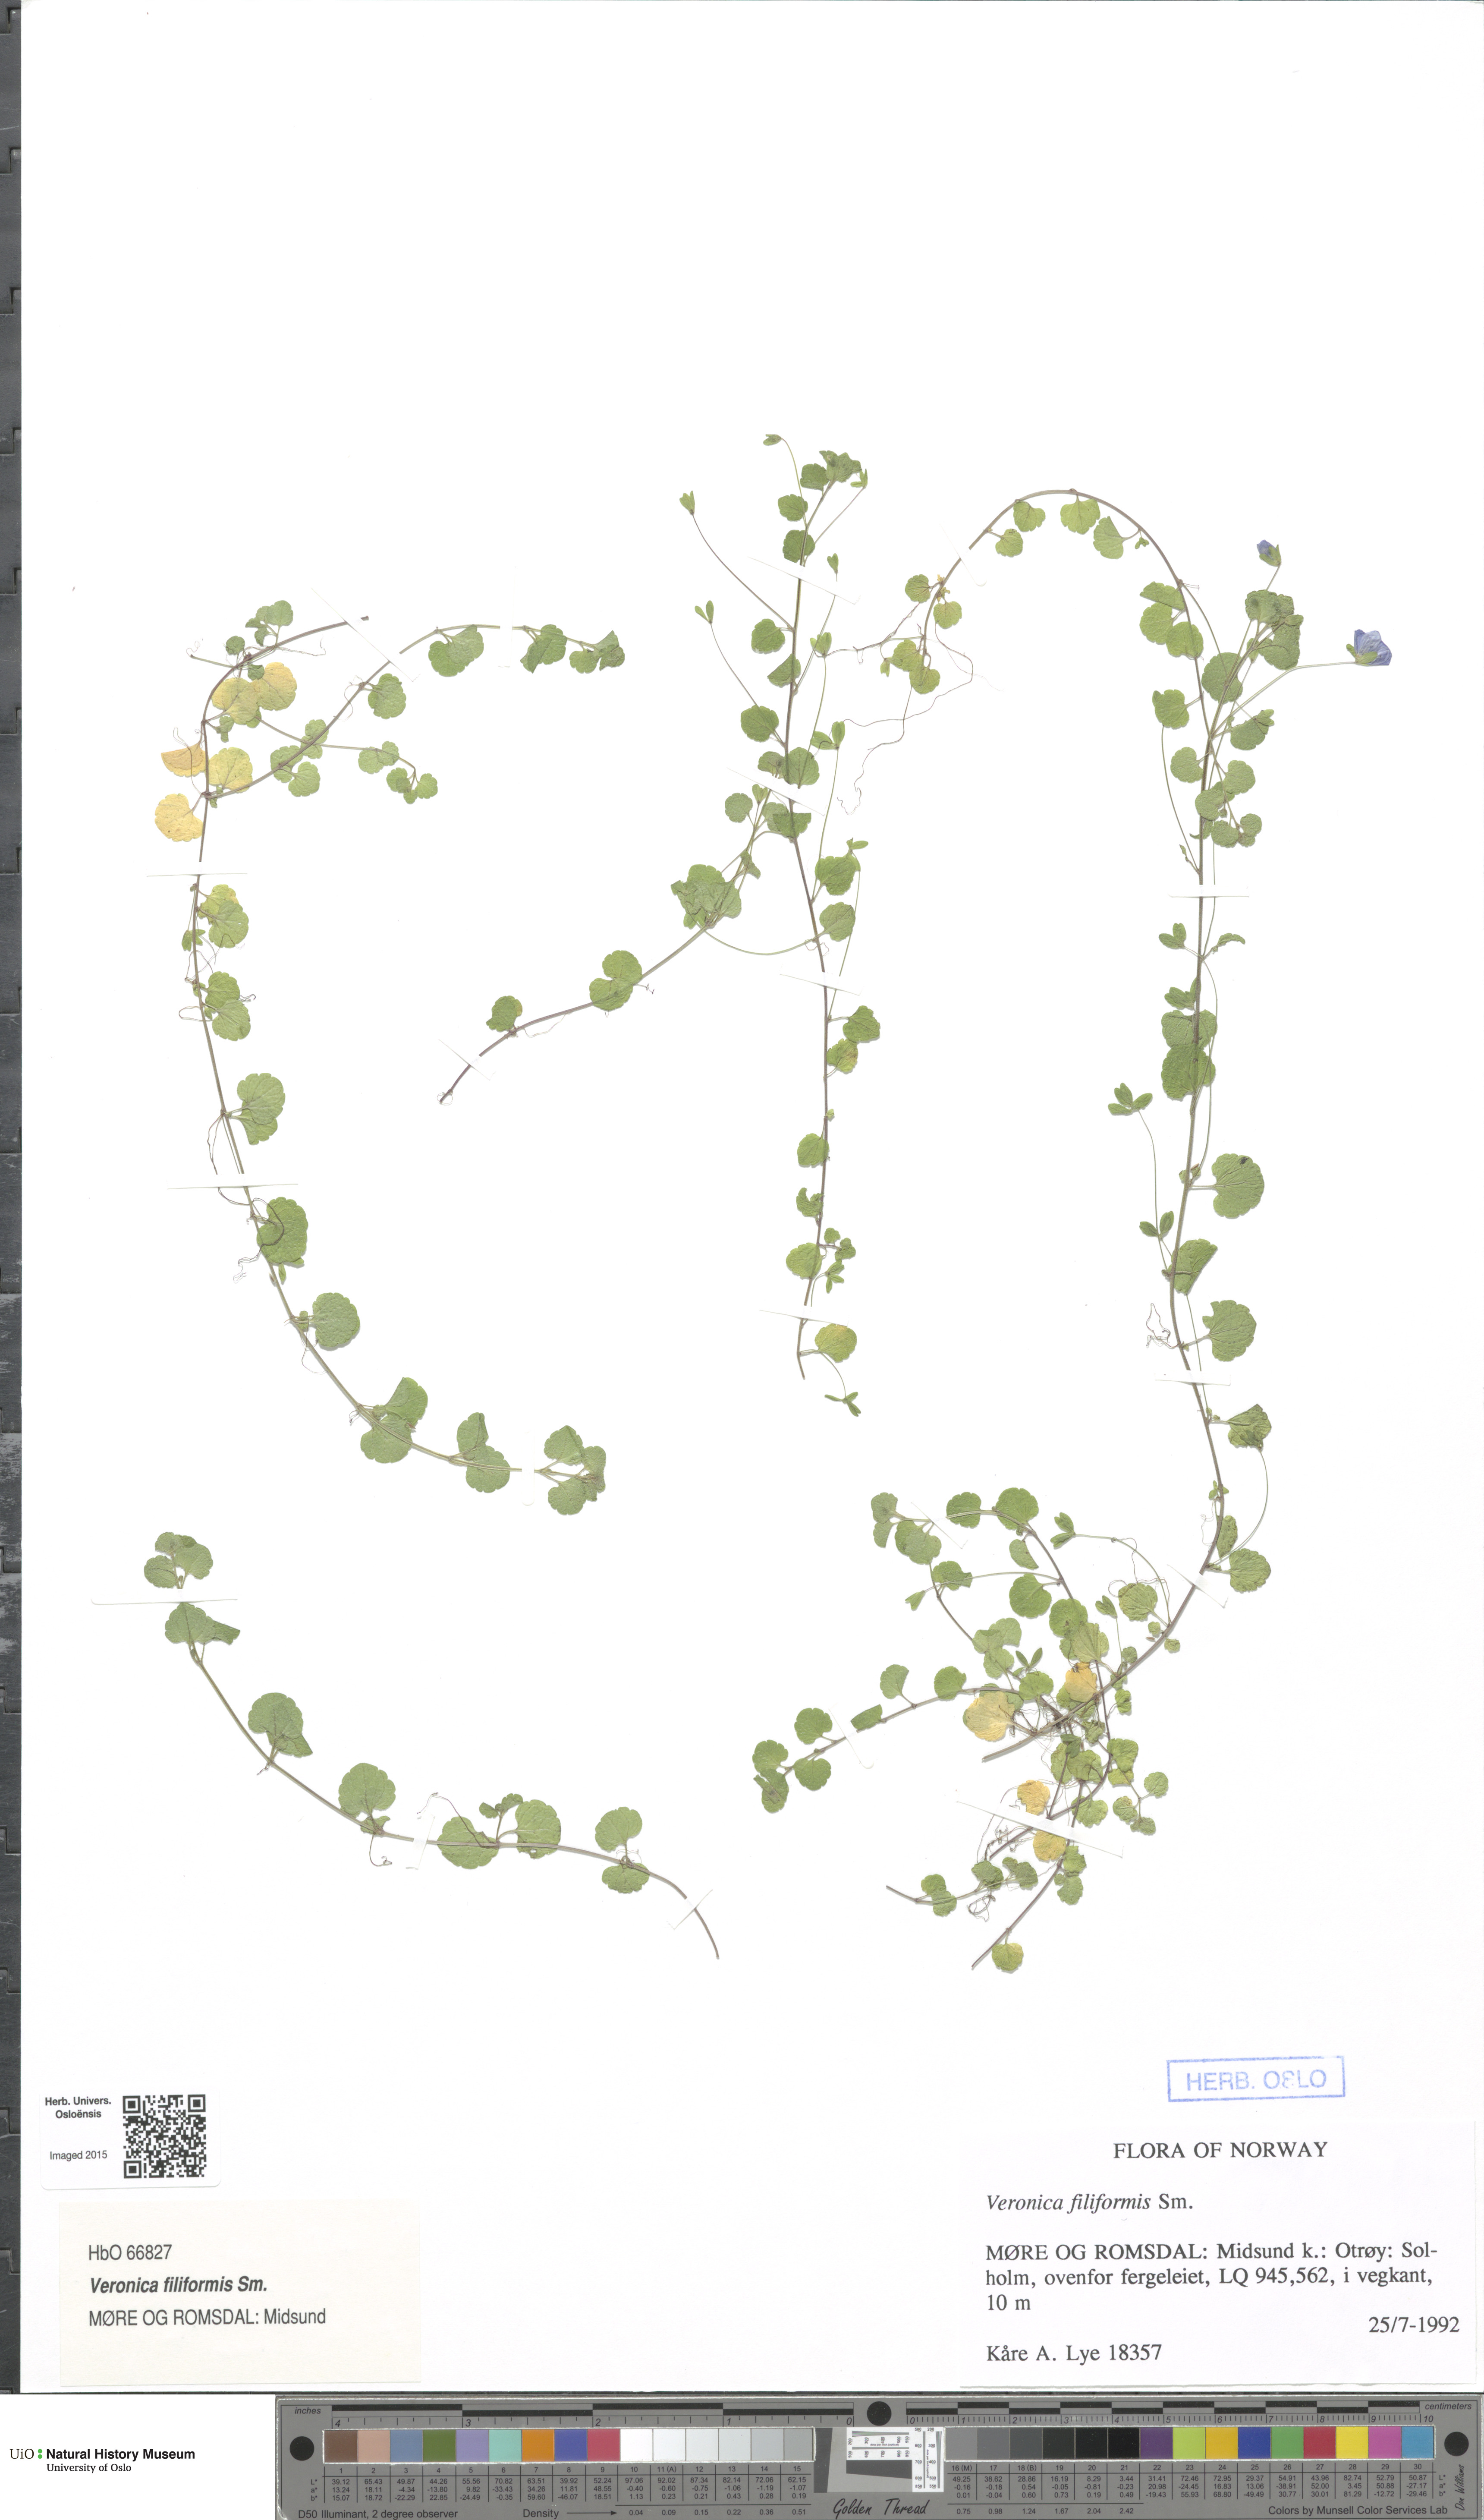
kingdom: Plantae
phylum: Tracheophyta
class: Magnoliopsida
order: Lamiales
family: Plantaginaceae
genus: Veronica
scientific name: Veronica filiformis
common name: Slender speedwell
